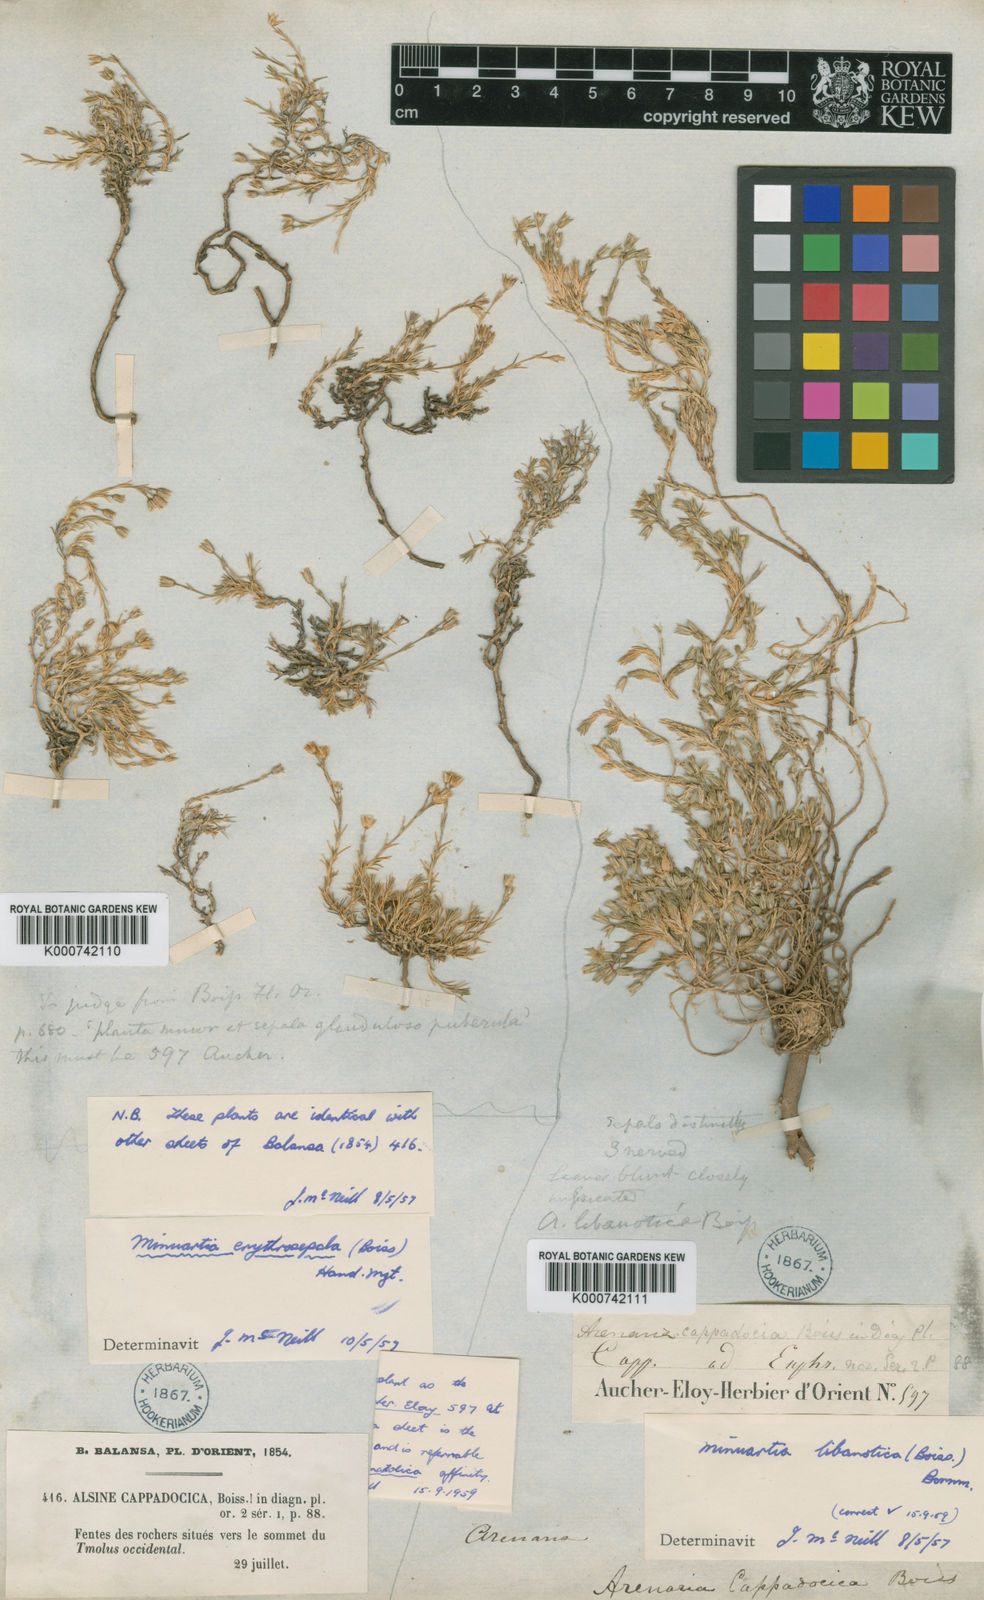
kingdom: Plantae
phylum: Tracheophyta
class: Magnoliopsida
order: Caryophyllales
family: Caryophyllaceae
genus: Minuartia
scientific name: Minuartia libanotica
